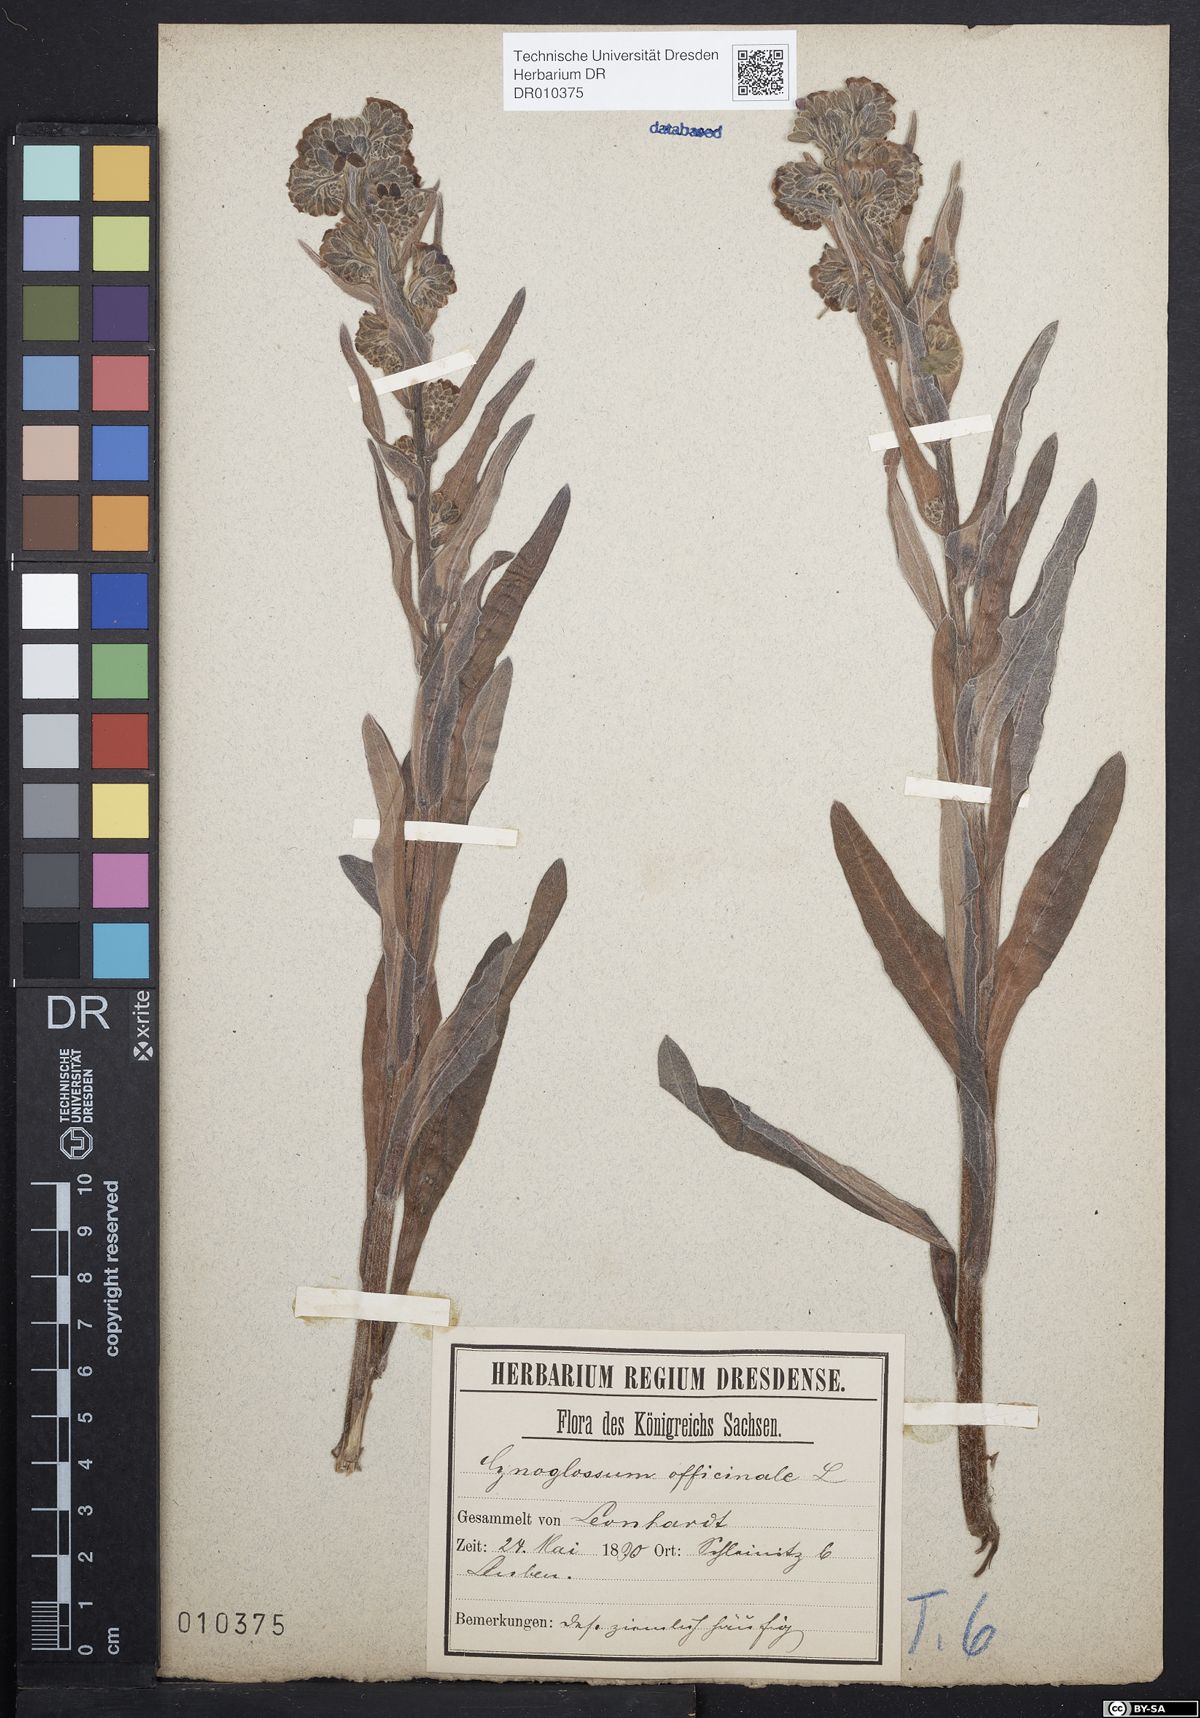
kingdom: Plantae
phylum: Tracheophyta
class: Magnoliopsida
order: Boraginales
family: Boraginaceae
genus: Cynoglossum
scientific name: Cynoglossum officinale
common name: Hound's-tongue
